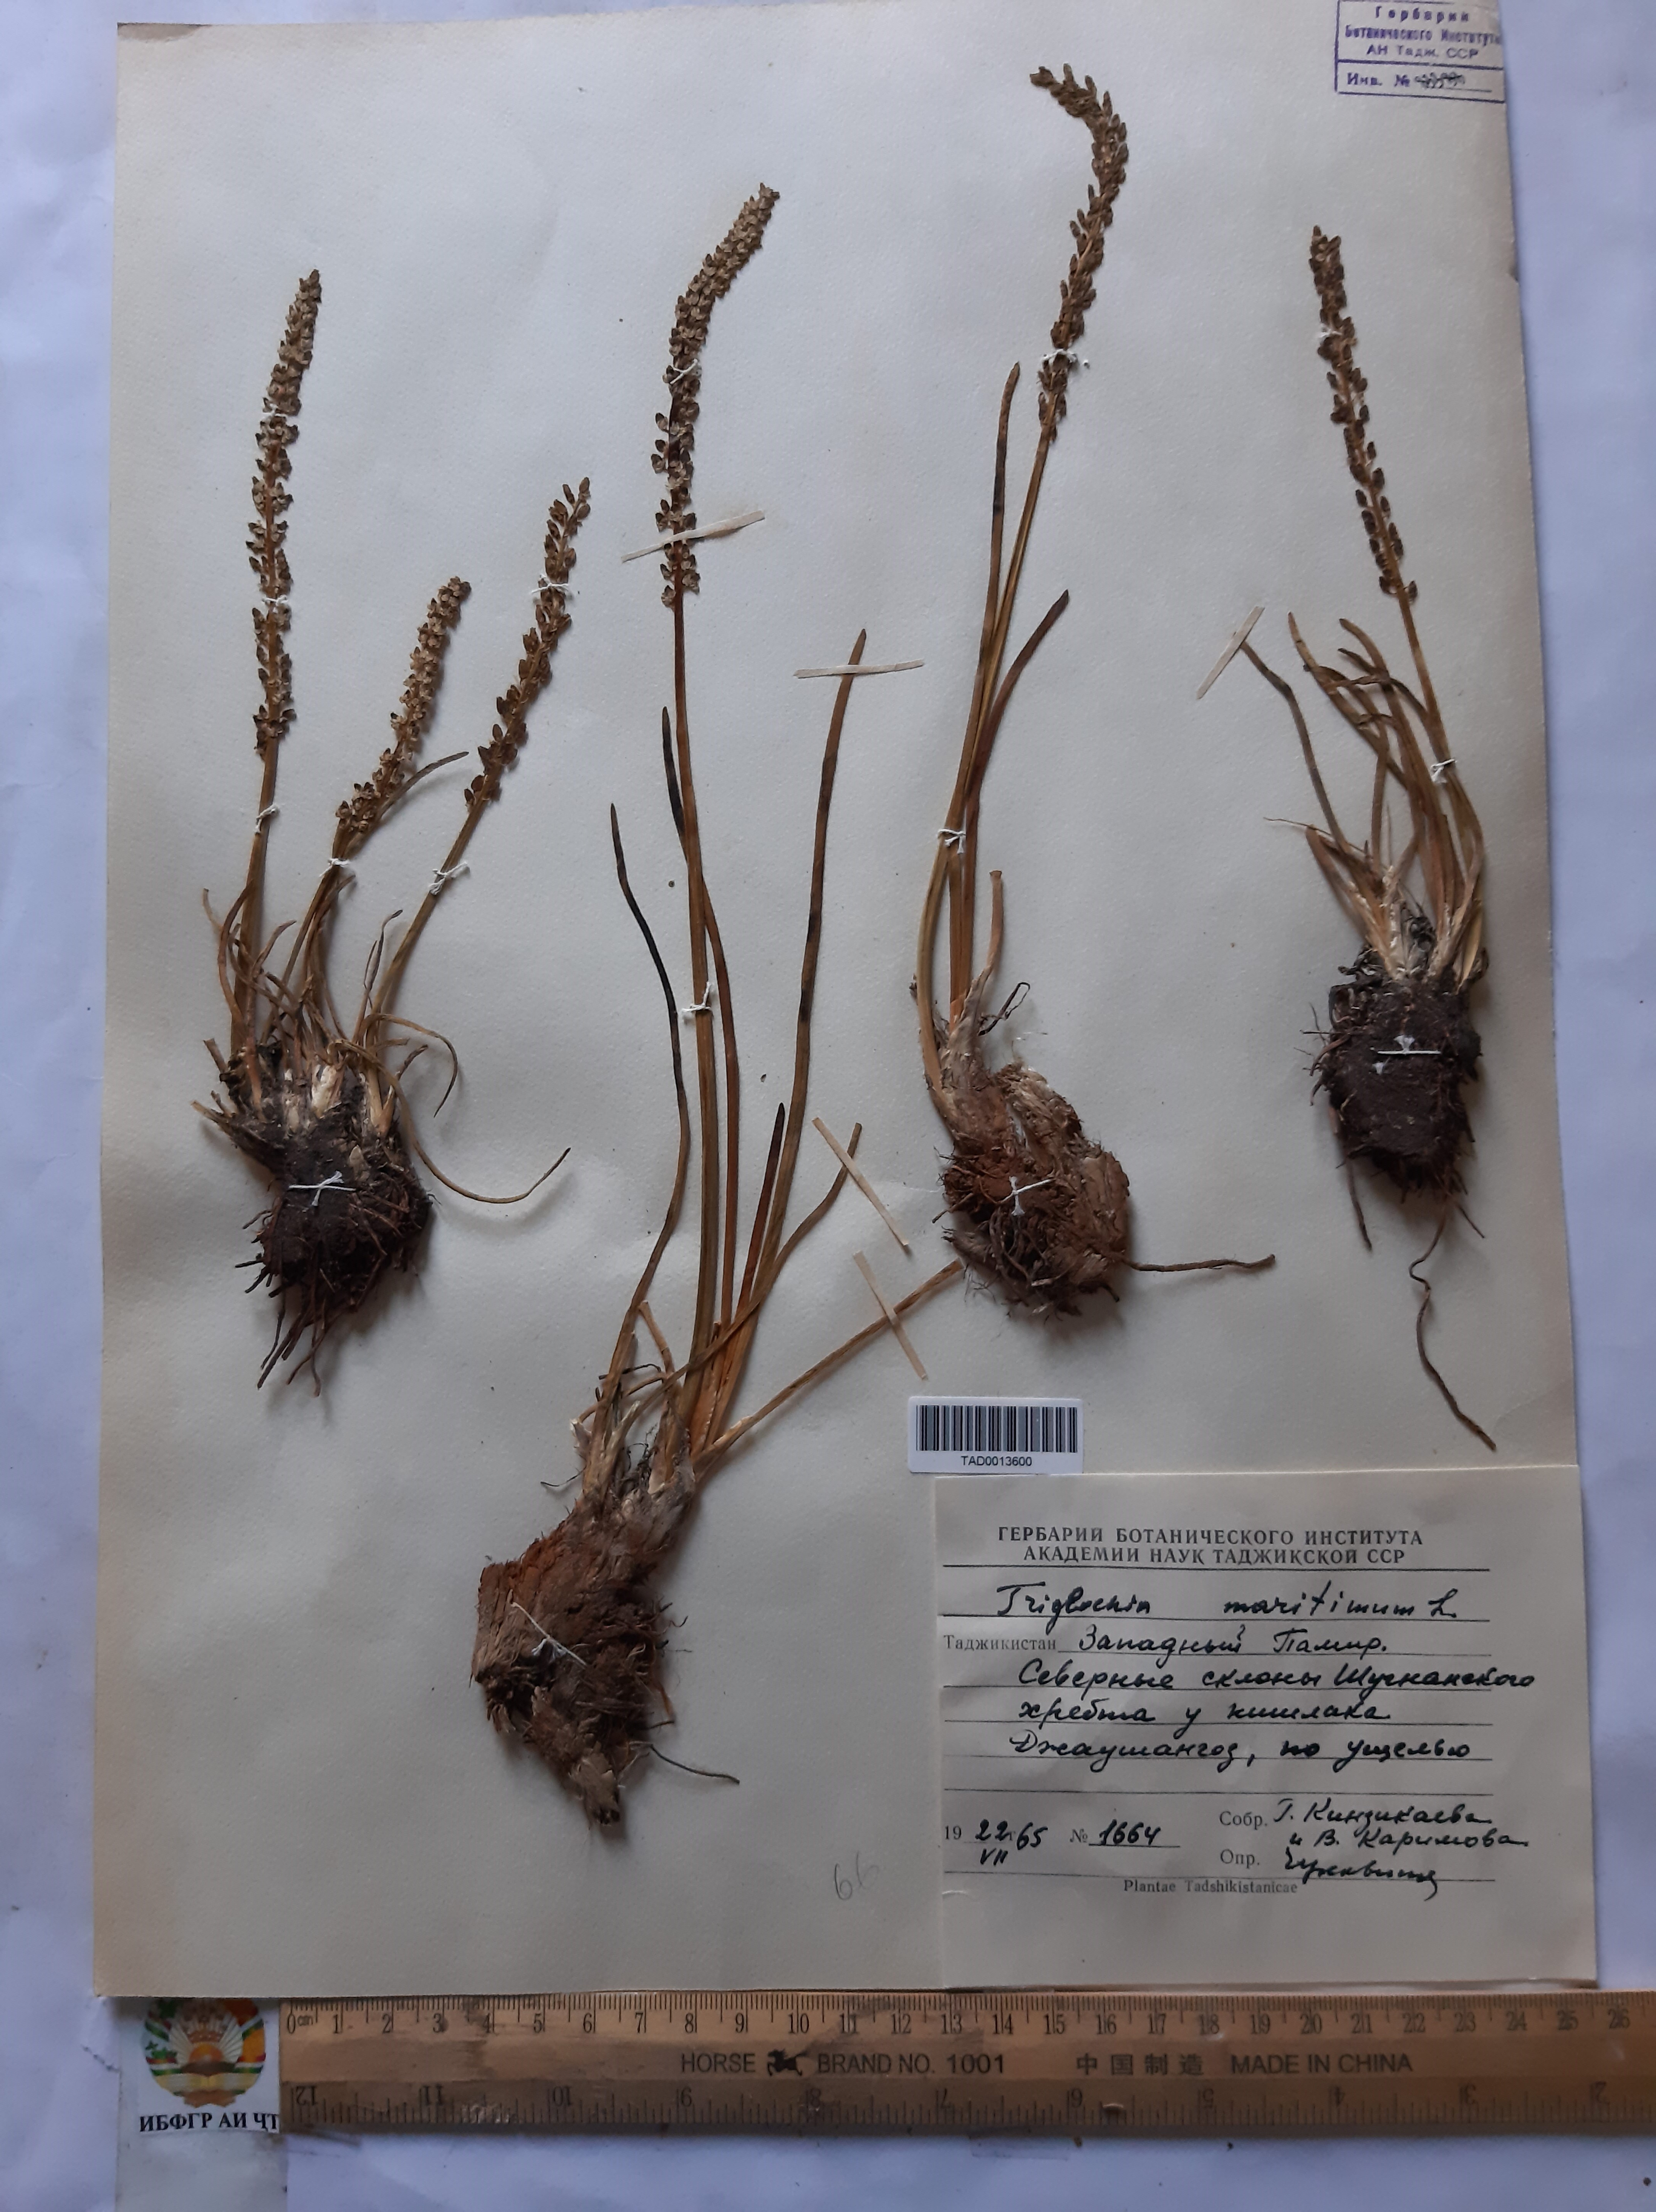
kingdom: Plantae
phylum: Tracheophyta
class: Liliopsida
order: Alismatales
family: Juncaginaceae
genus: Triglochin
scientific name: Triglochin maritima
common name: Sea arrowgrass
